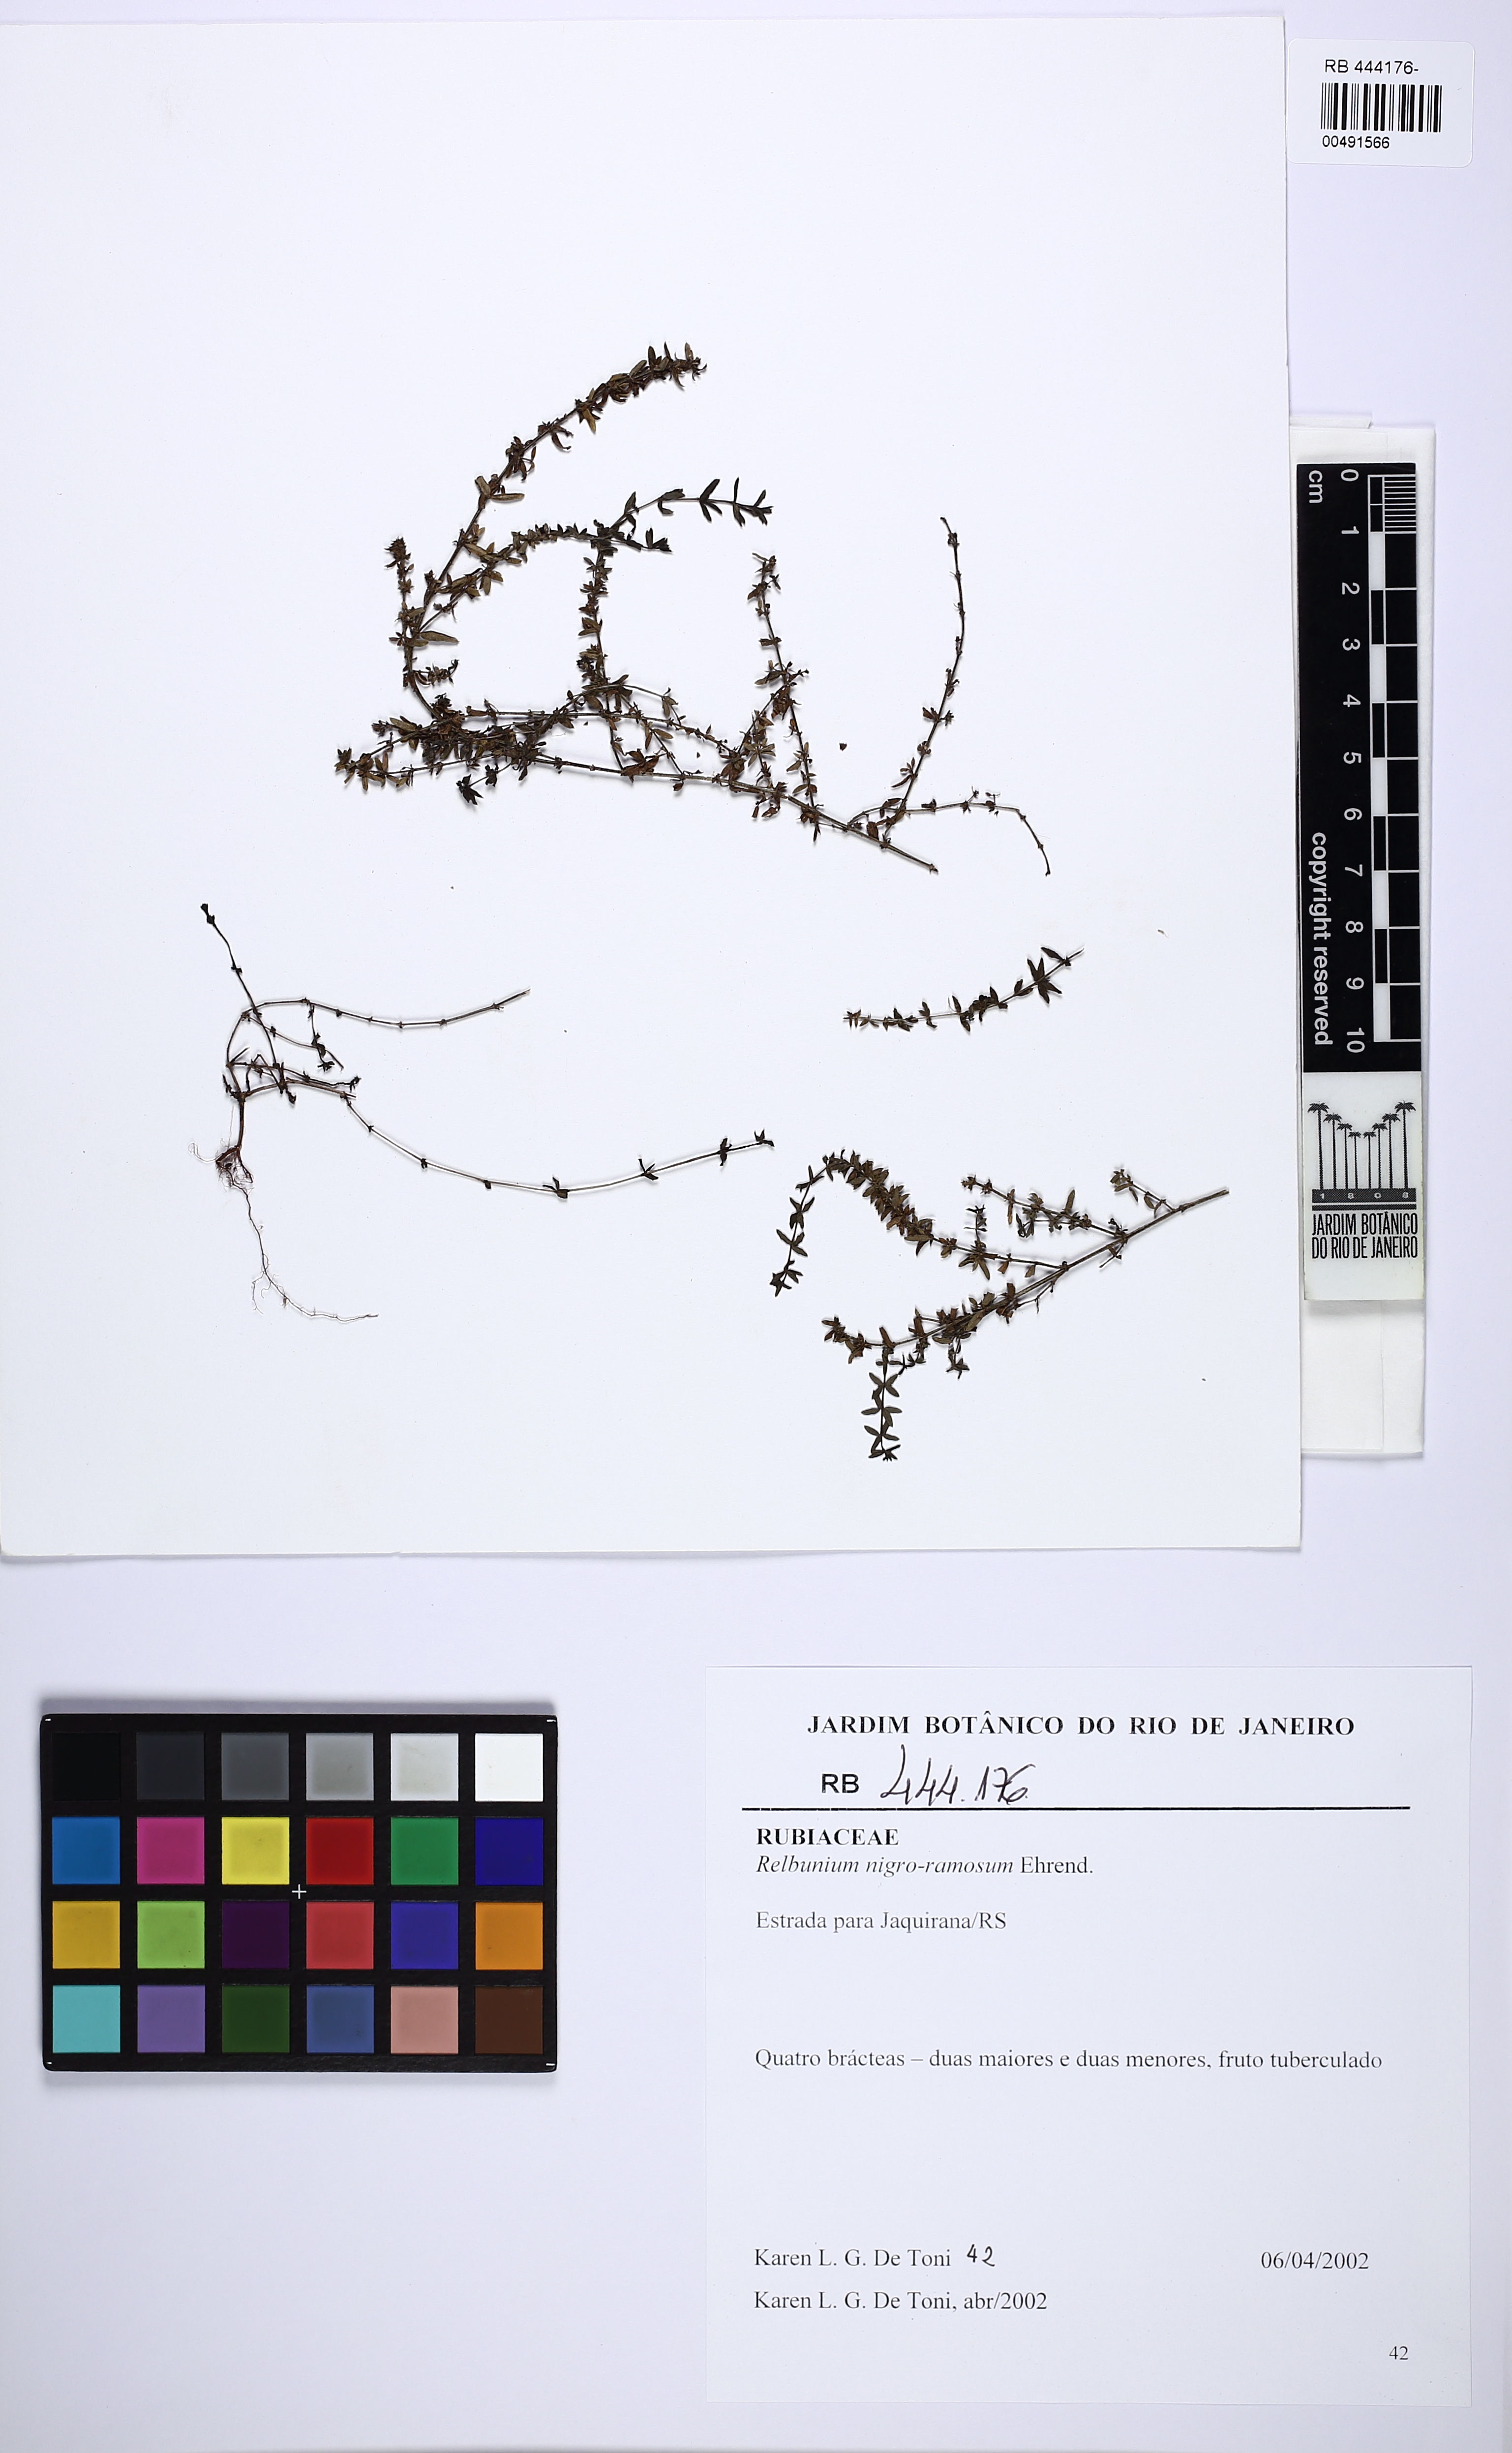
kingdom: Plantae
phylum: Tracheophyta
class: Magnoliopsida
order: Gentianales
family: Rubiaceae
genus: Galium
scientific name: Galium nigroramosum
